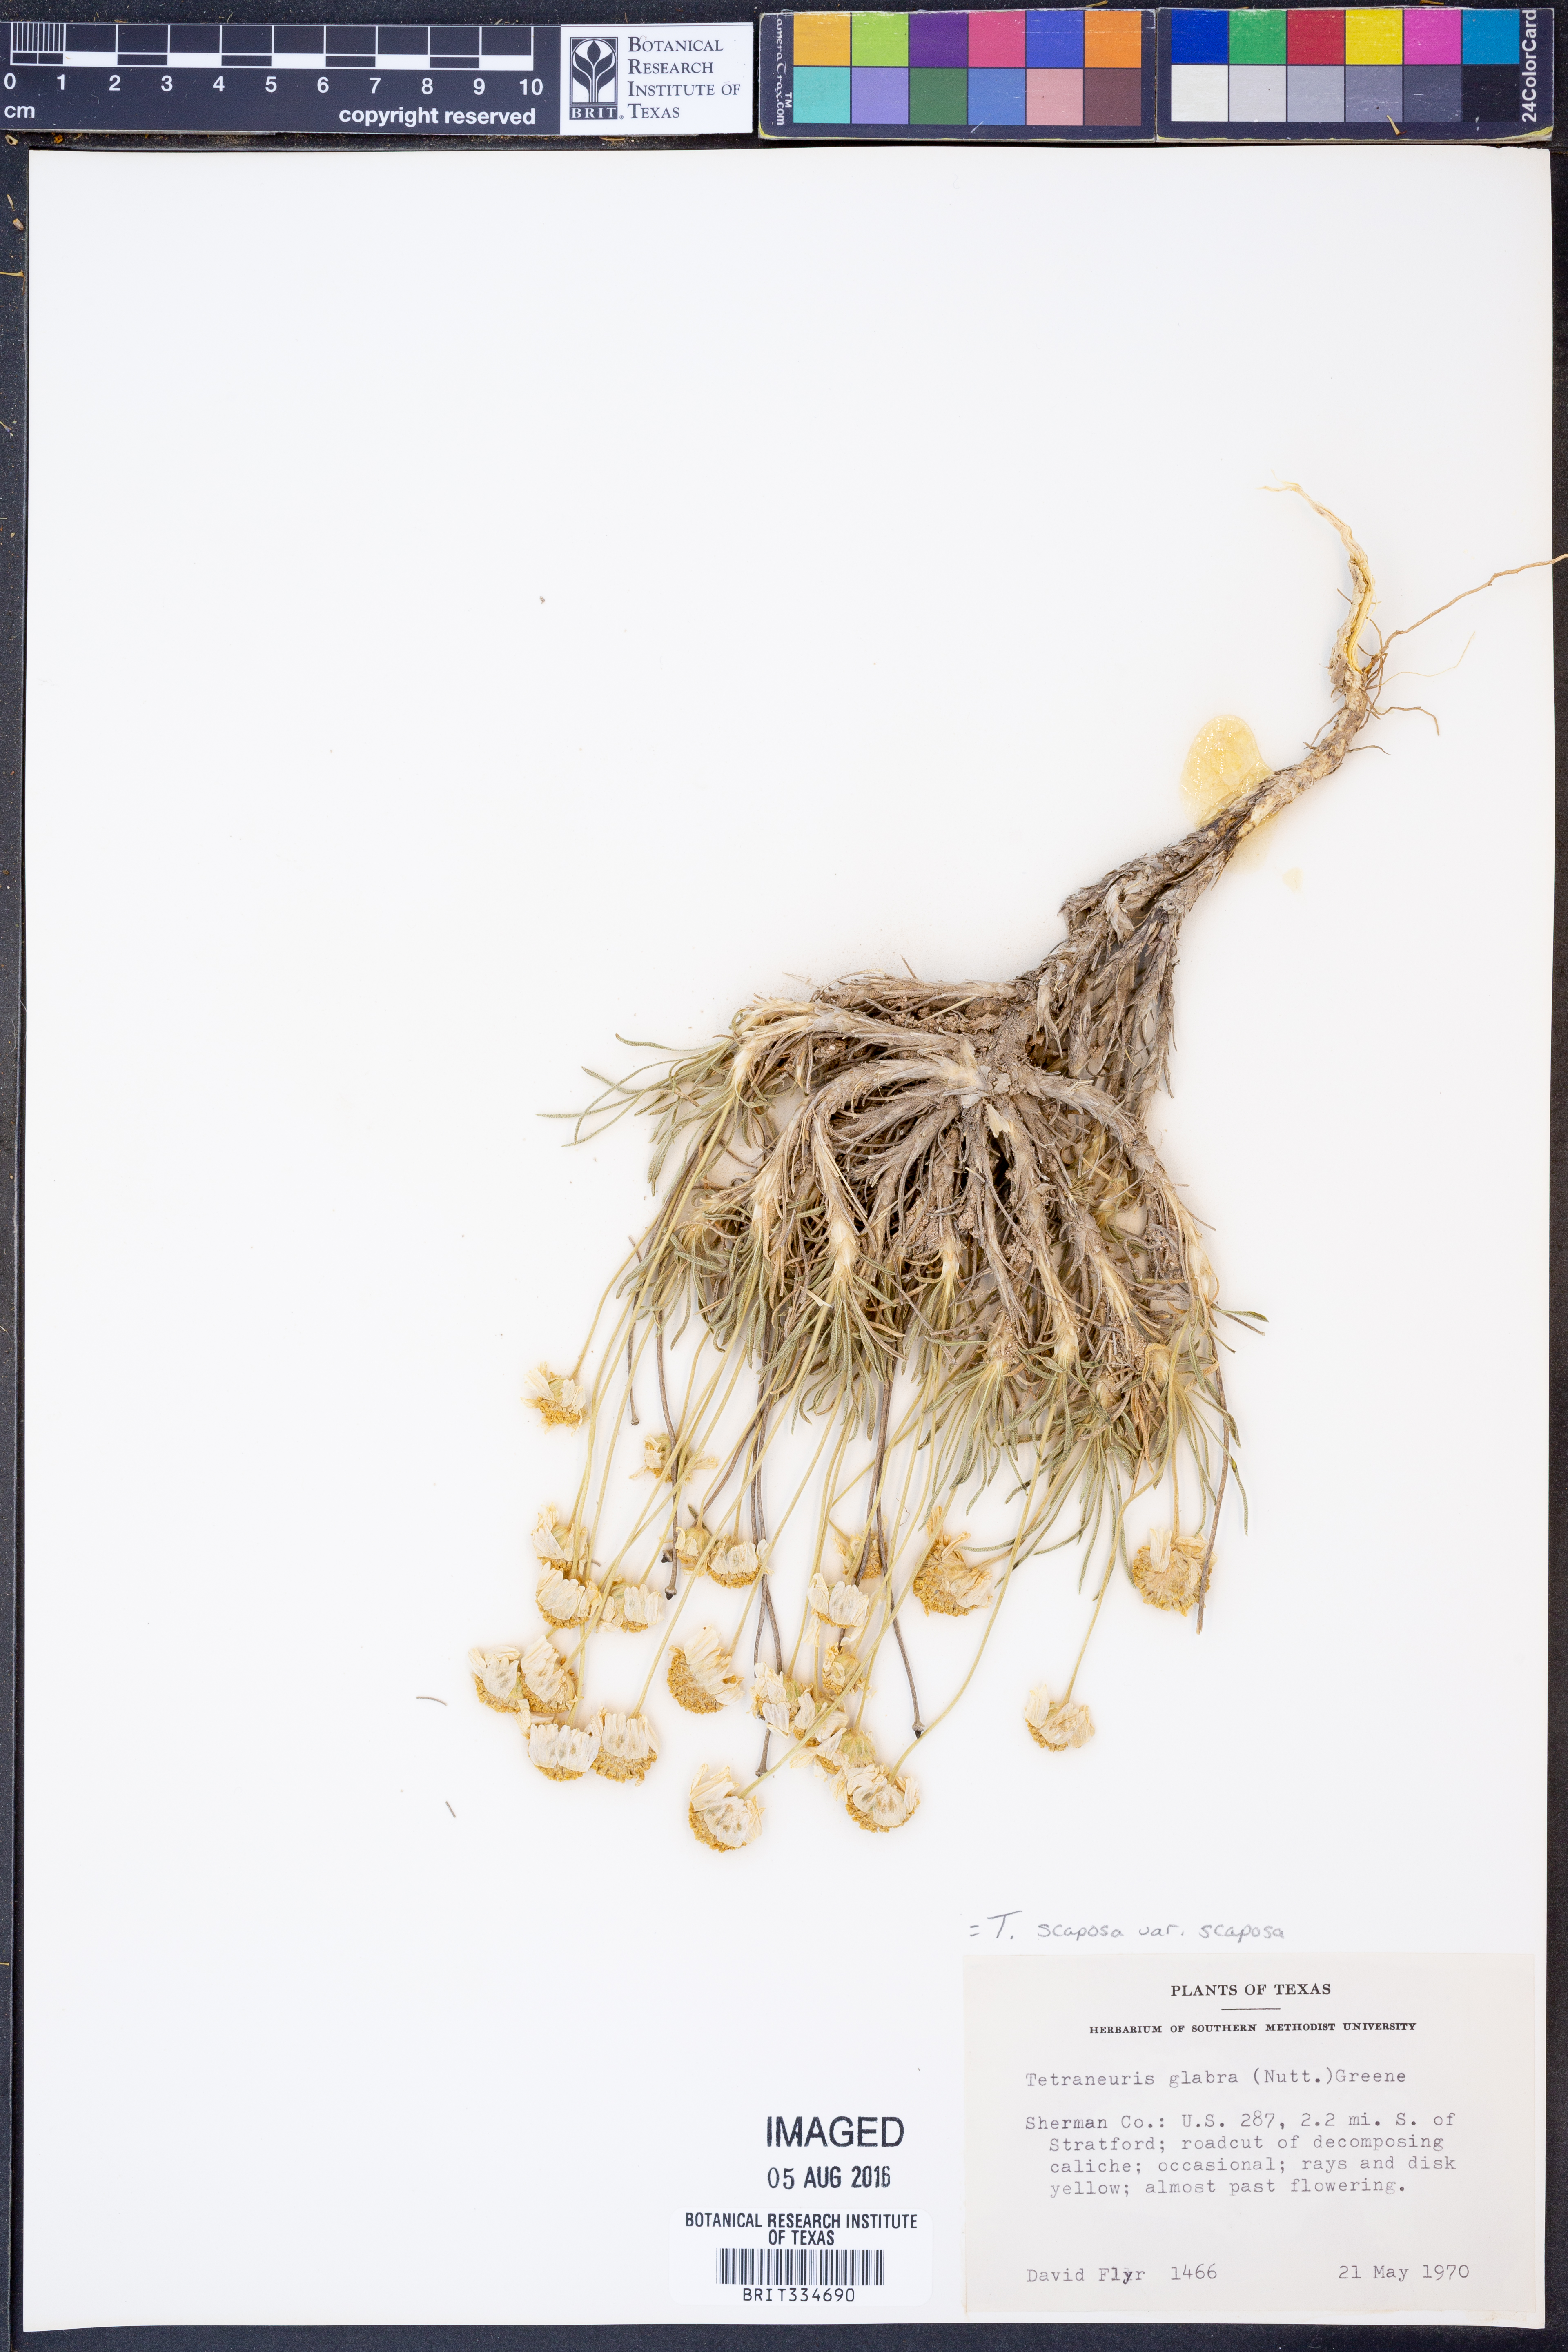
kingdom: Plantae
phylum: Tracheophyta
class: Magnoliopsida
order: Asterales
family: Asteraceae
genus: Tetraneuris
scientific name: Tetraneuris scaposa
